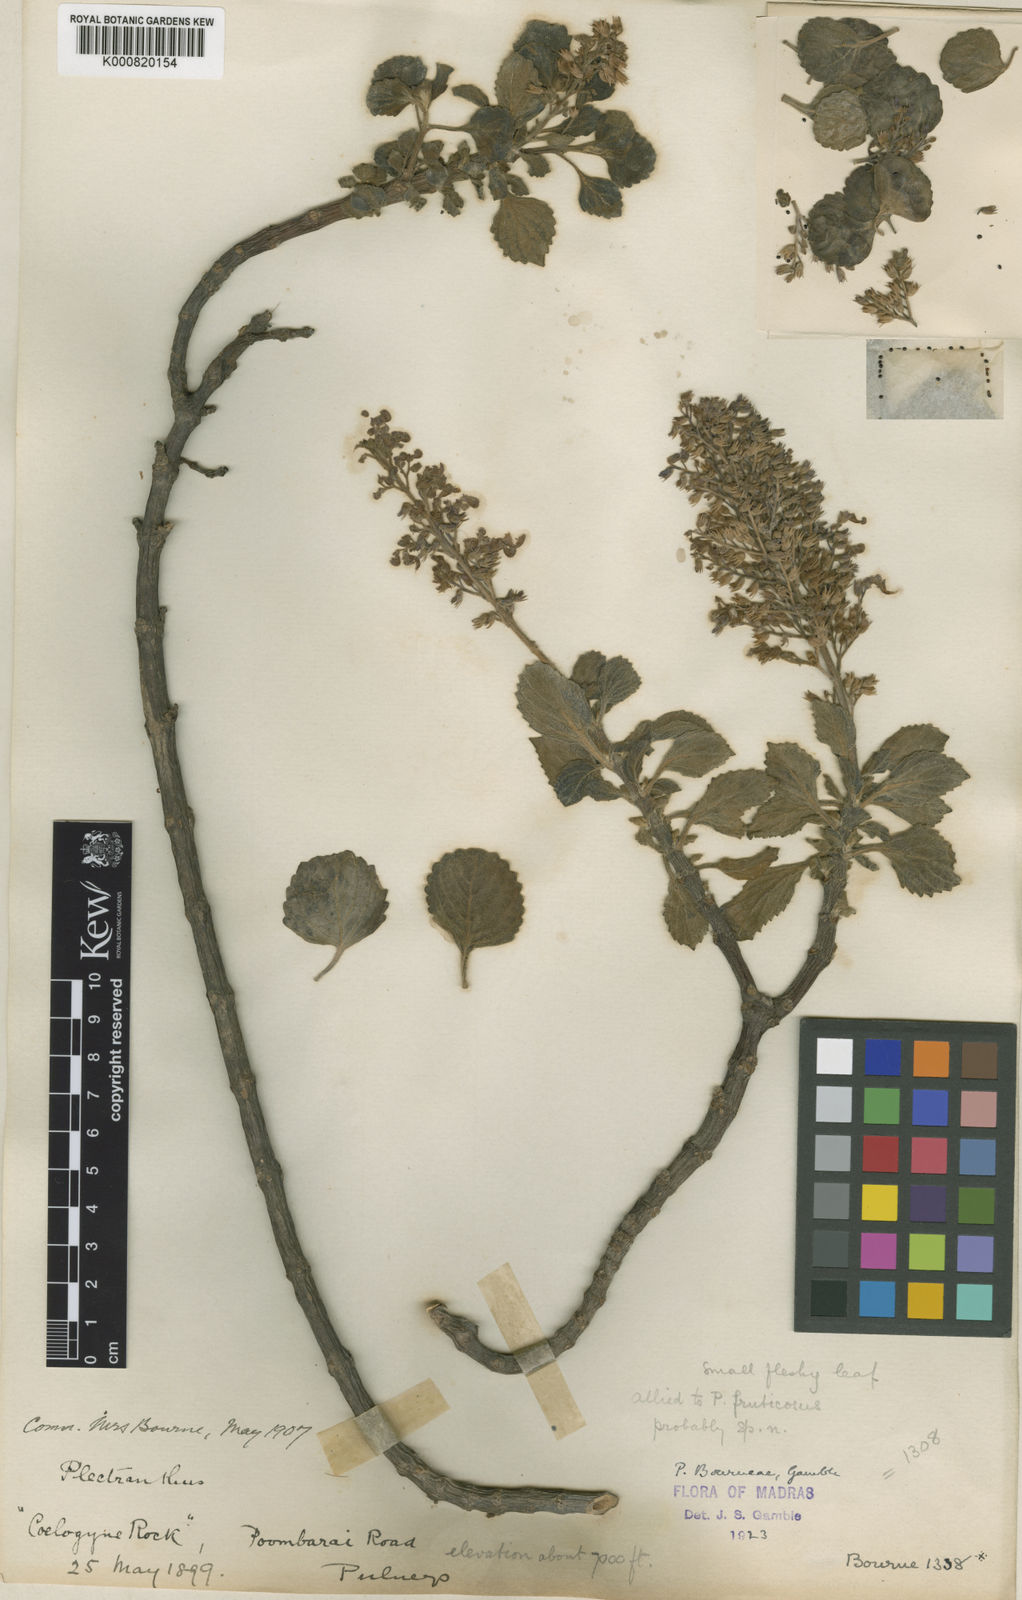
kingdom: Plantae
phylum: Tracheophyta
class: Magnoliopsida
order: Lamiales
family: Lamiaceae
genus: Coleus
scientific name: Coleus bourneae
